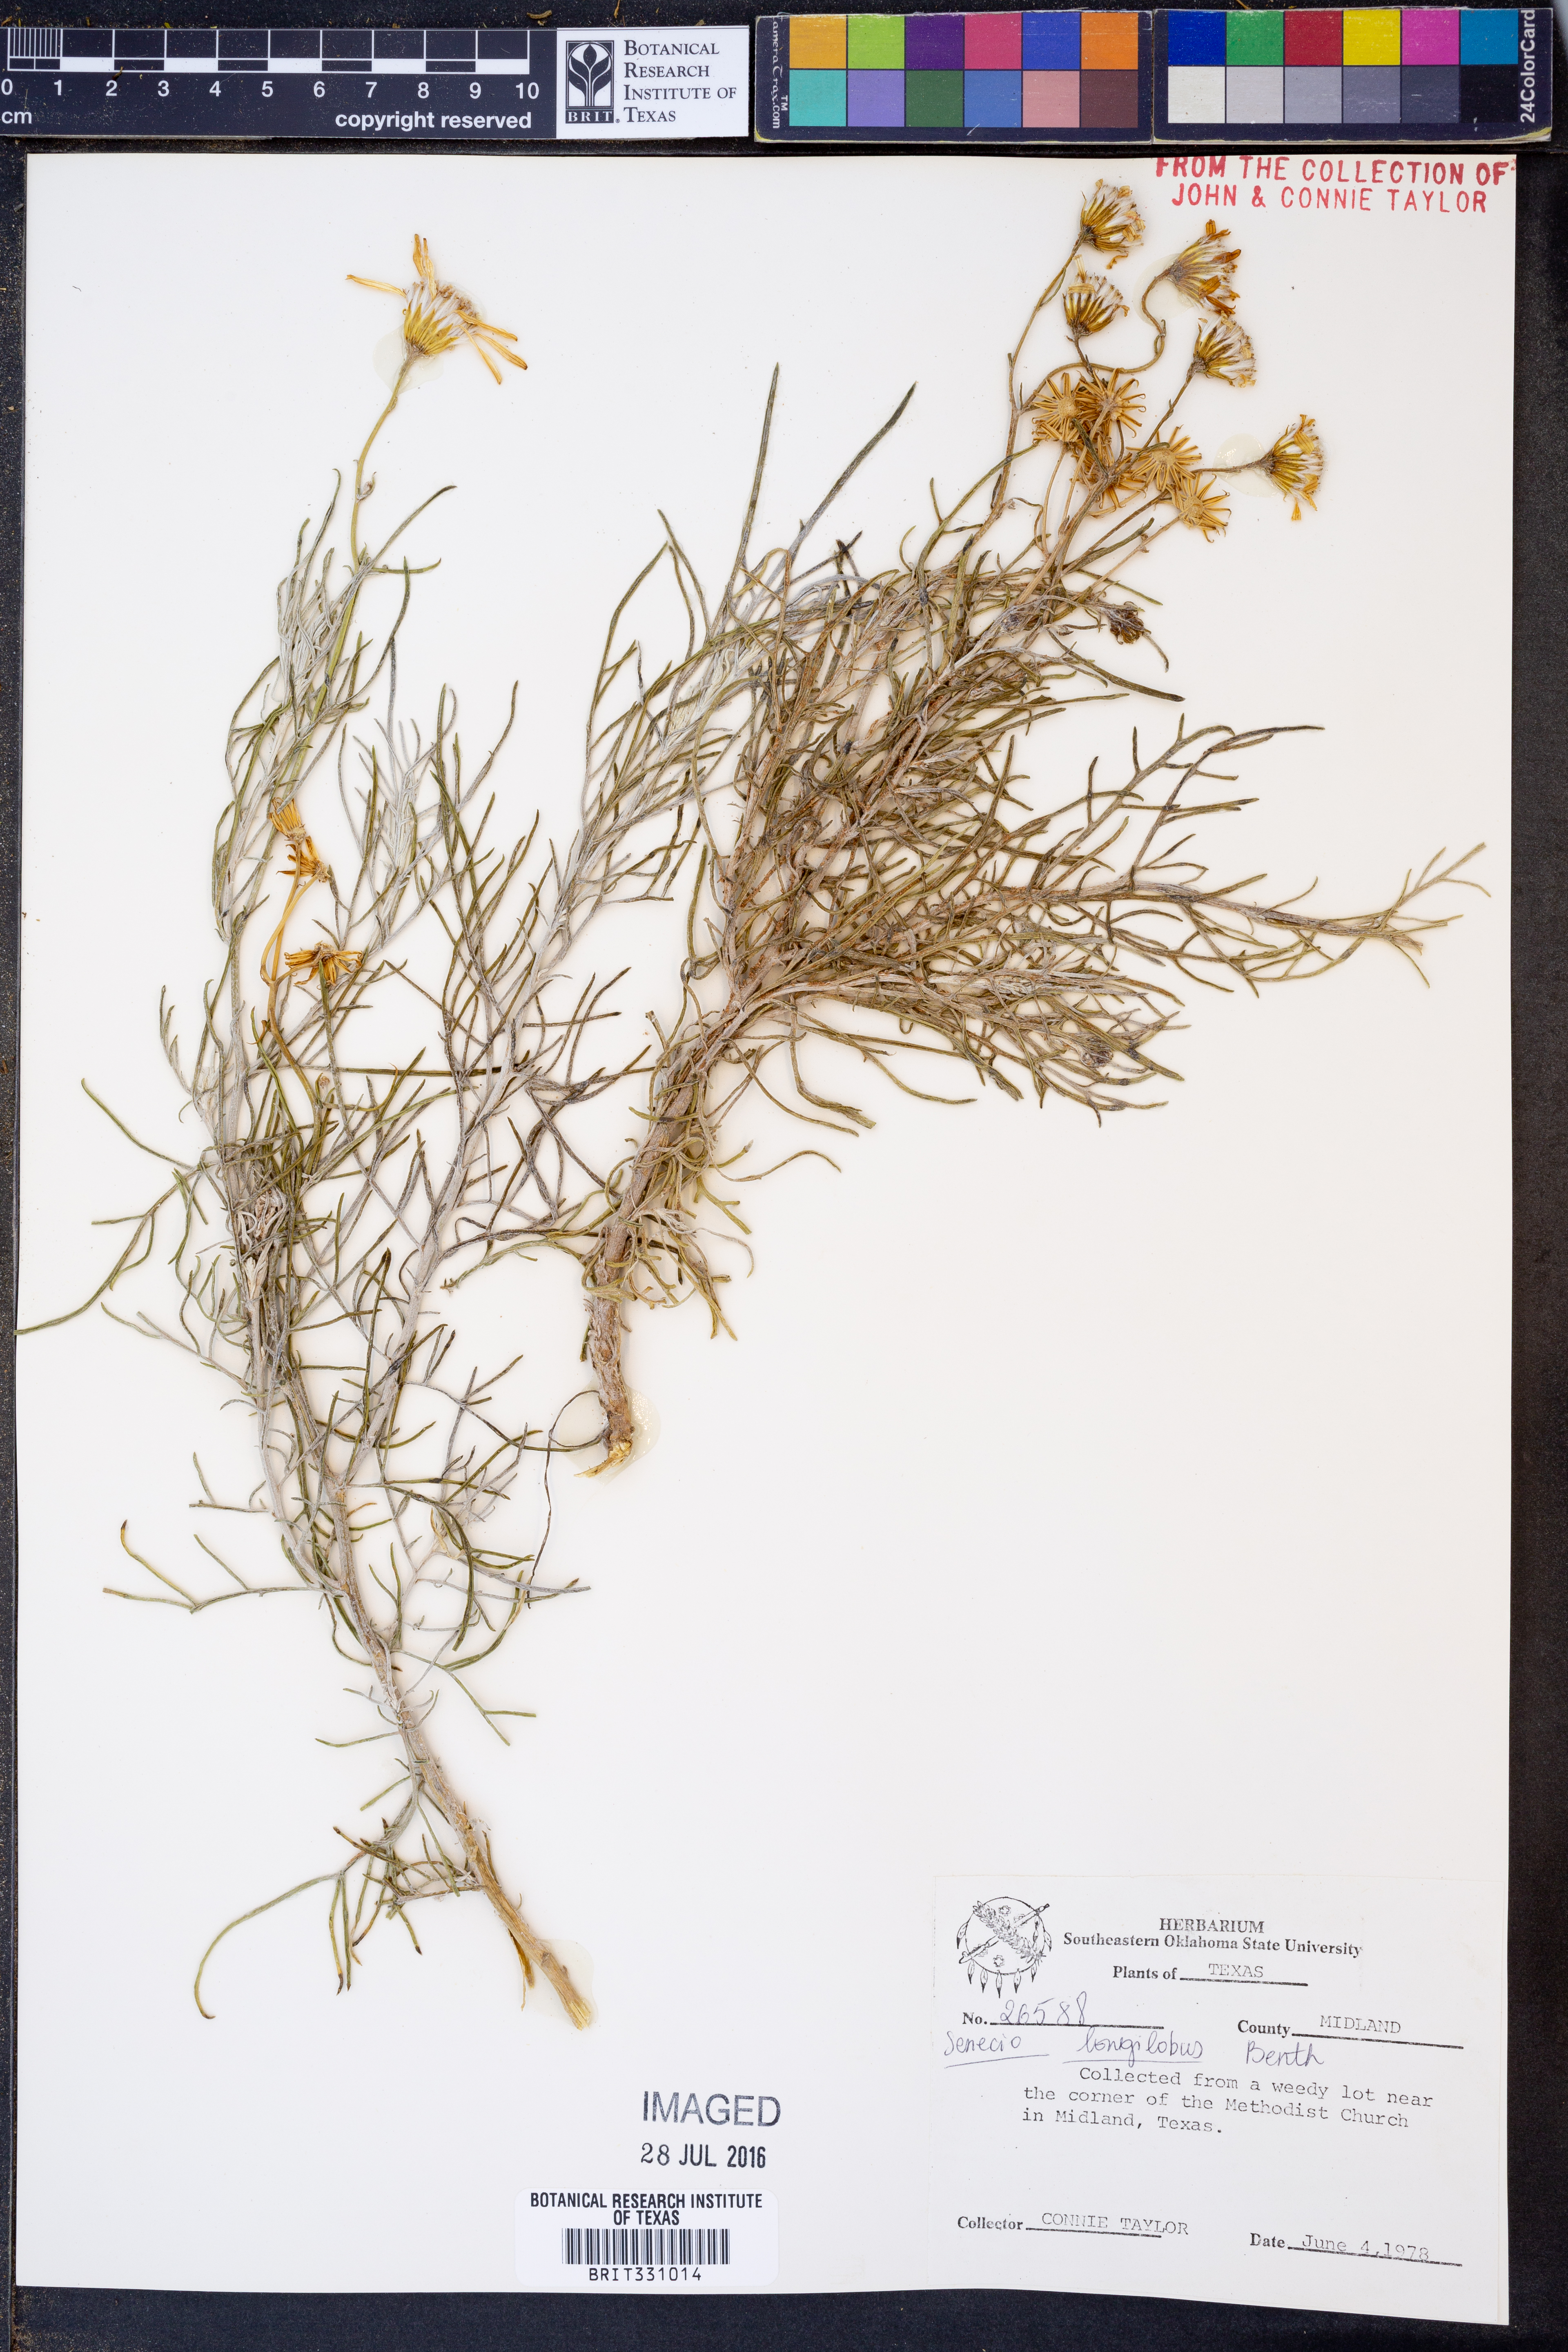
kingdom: Plantae
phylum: Tracheophyta
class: Magnoliopsida
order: Asterales
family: Asteraceae
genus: Senecio
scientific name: Senecio flaccidus
